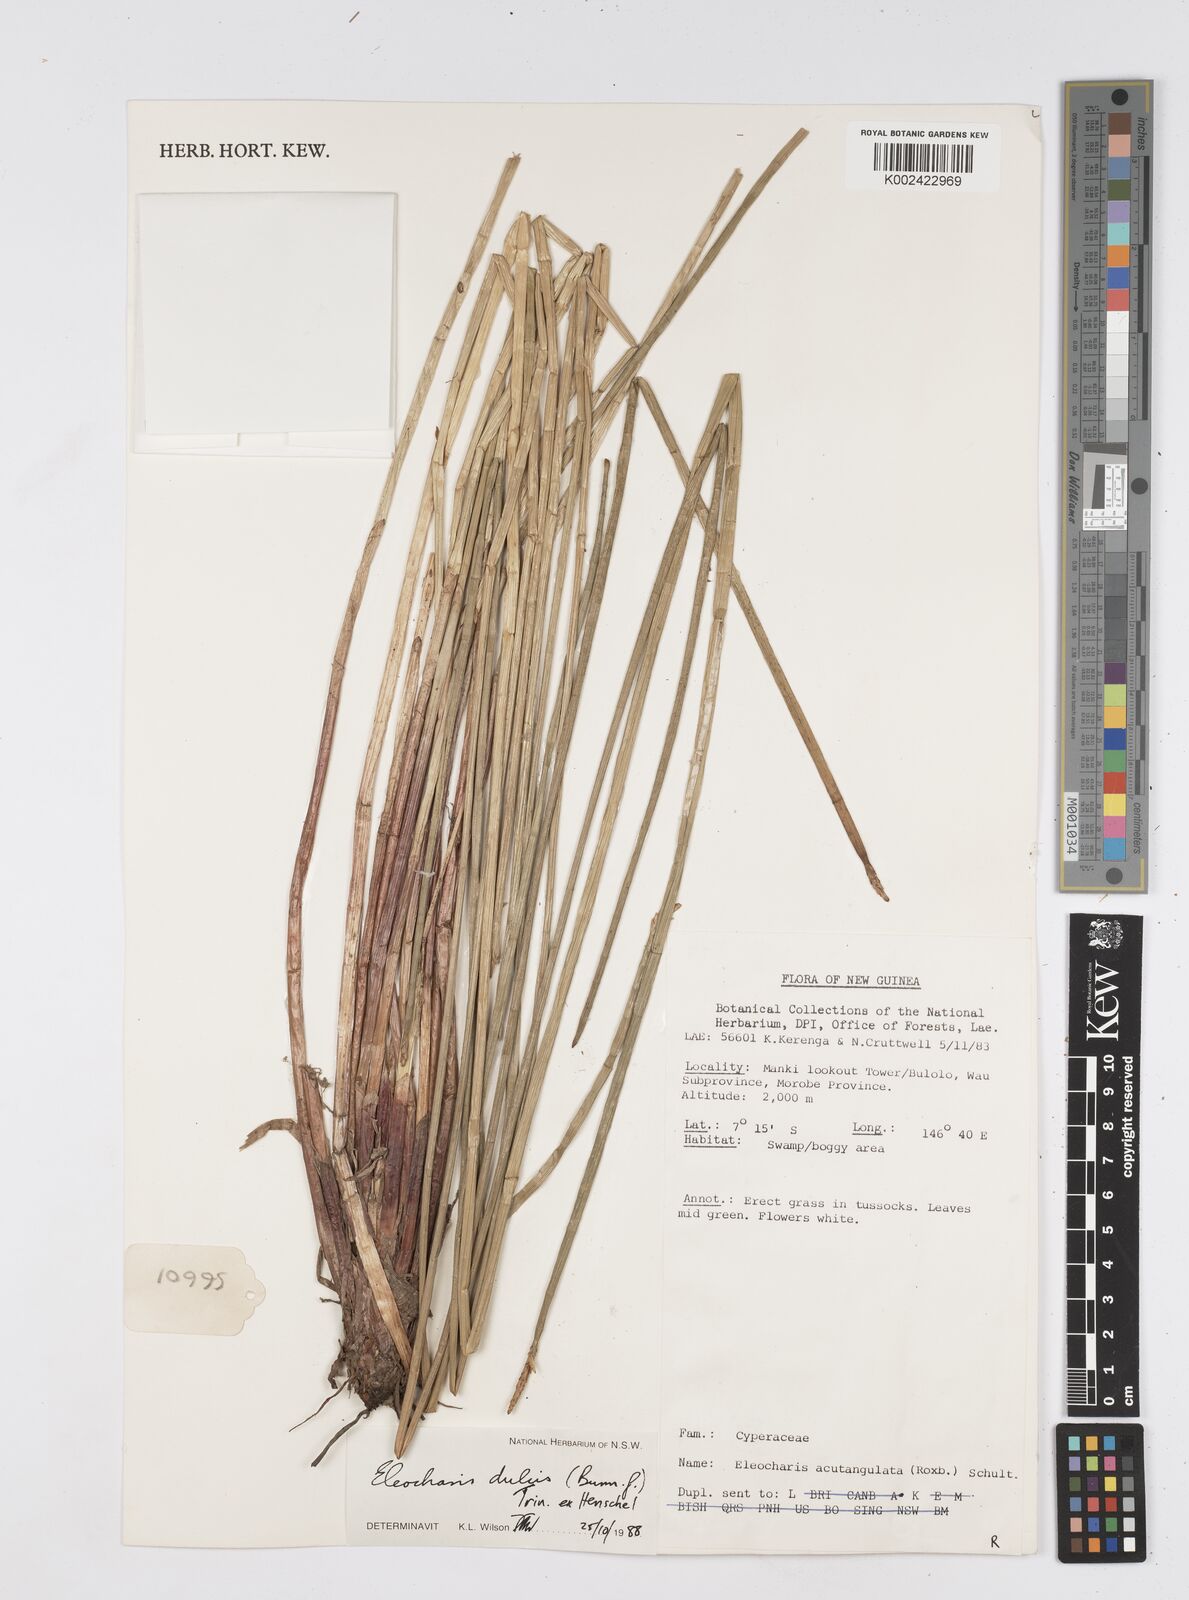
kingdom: Plantae
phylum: Tracheophyta
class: Liliopsida
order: Poales
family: Cyperaceae
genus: Eleocharis
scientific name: Eleocharis dulcis
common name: Chinese water chestnut
